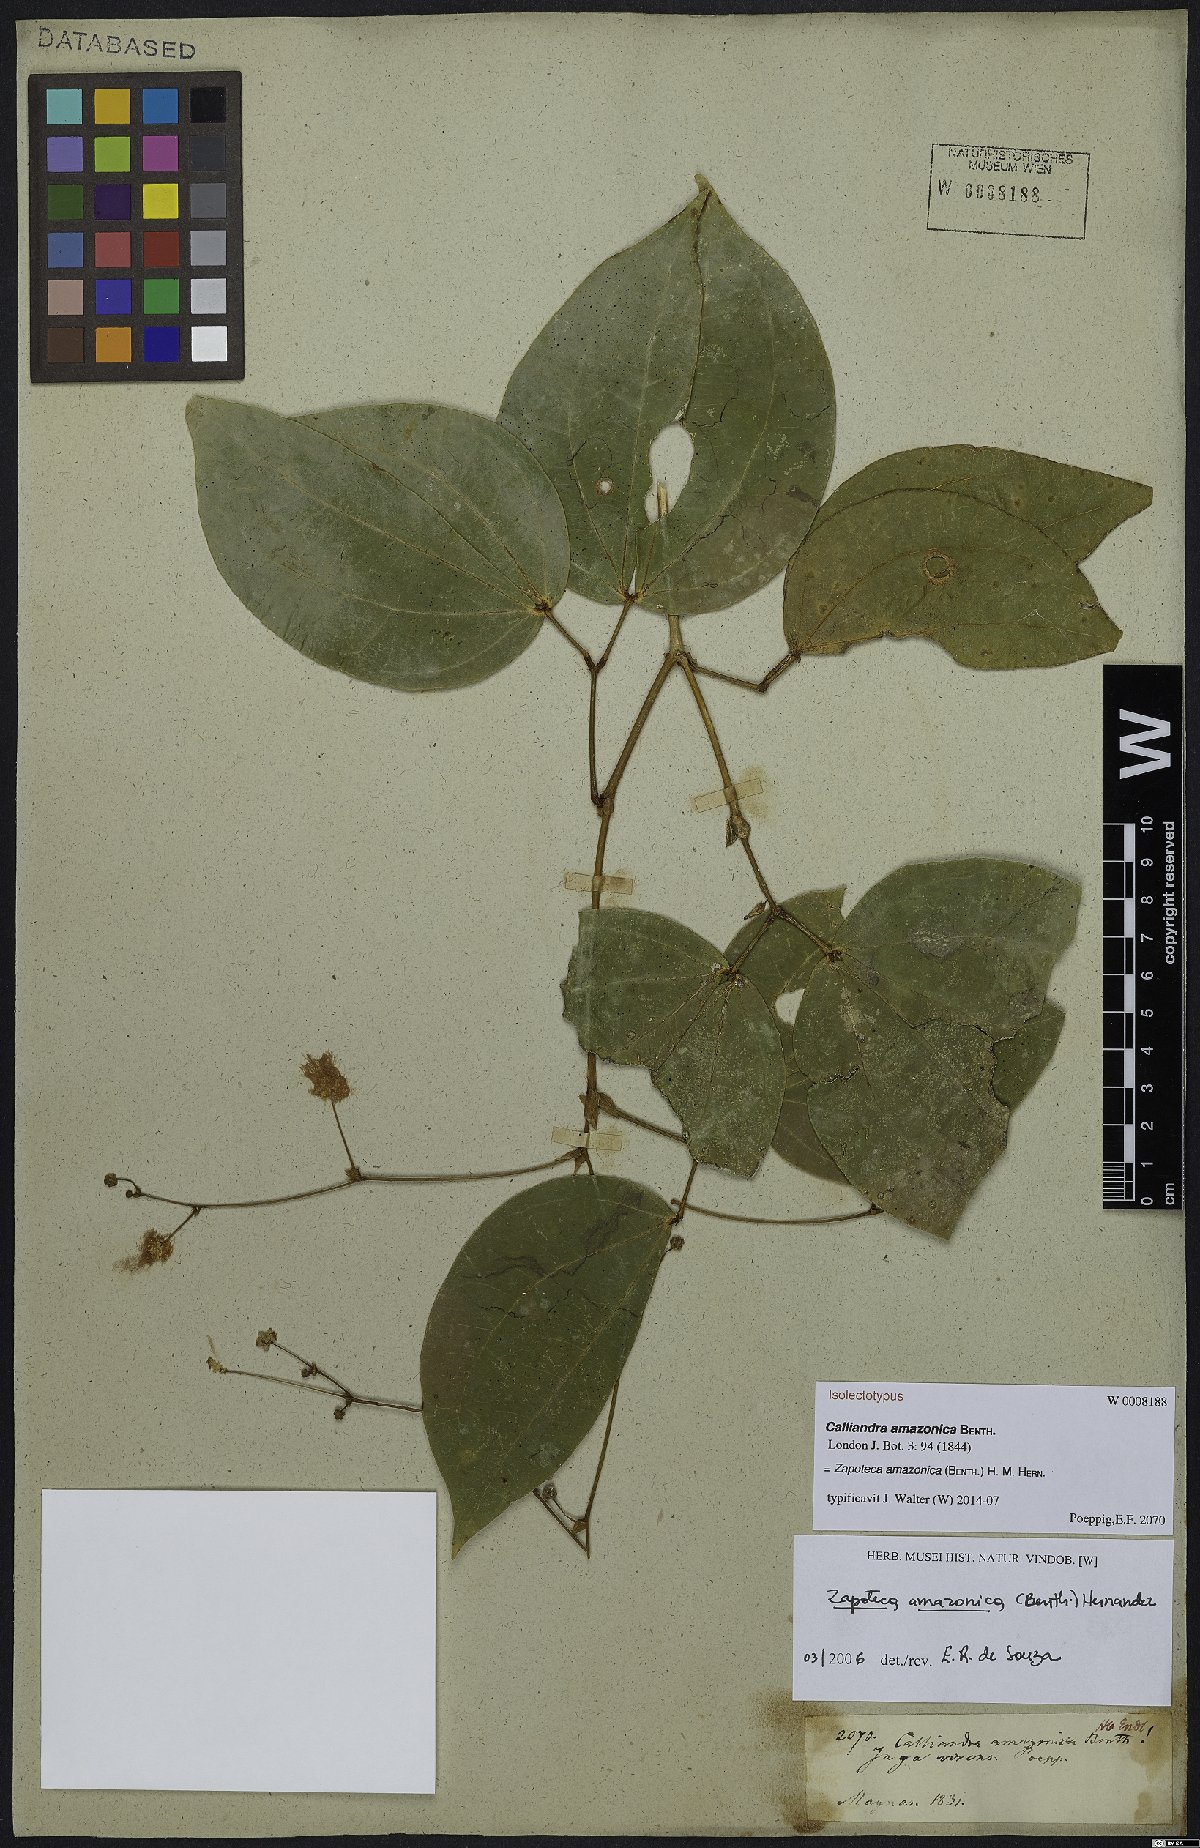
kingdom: Plantae
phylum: Tracheophyta
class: Magnoliopsida
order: Fabales
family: Fabaceae
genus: Zapoteca
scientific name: Zapoteca amazonica
